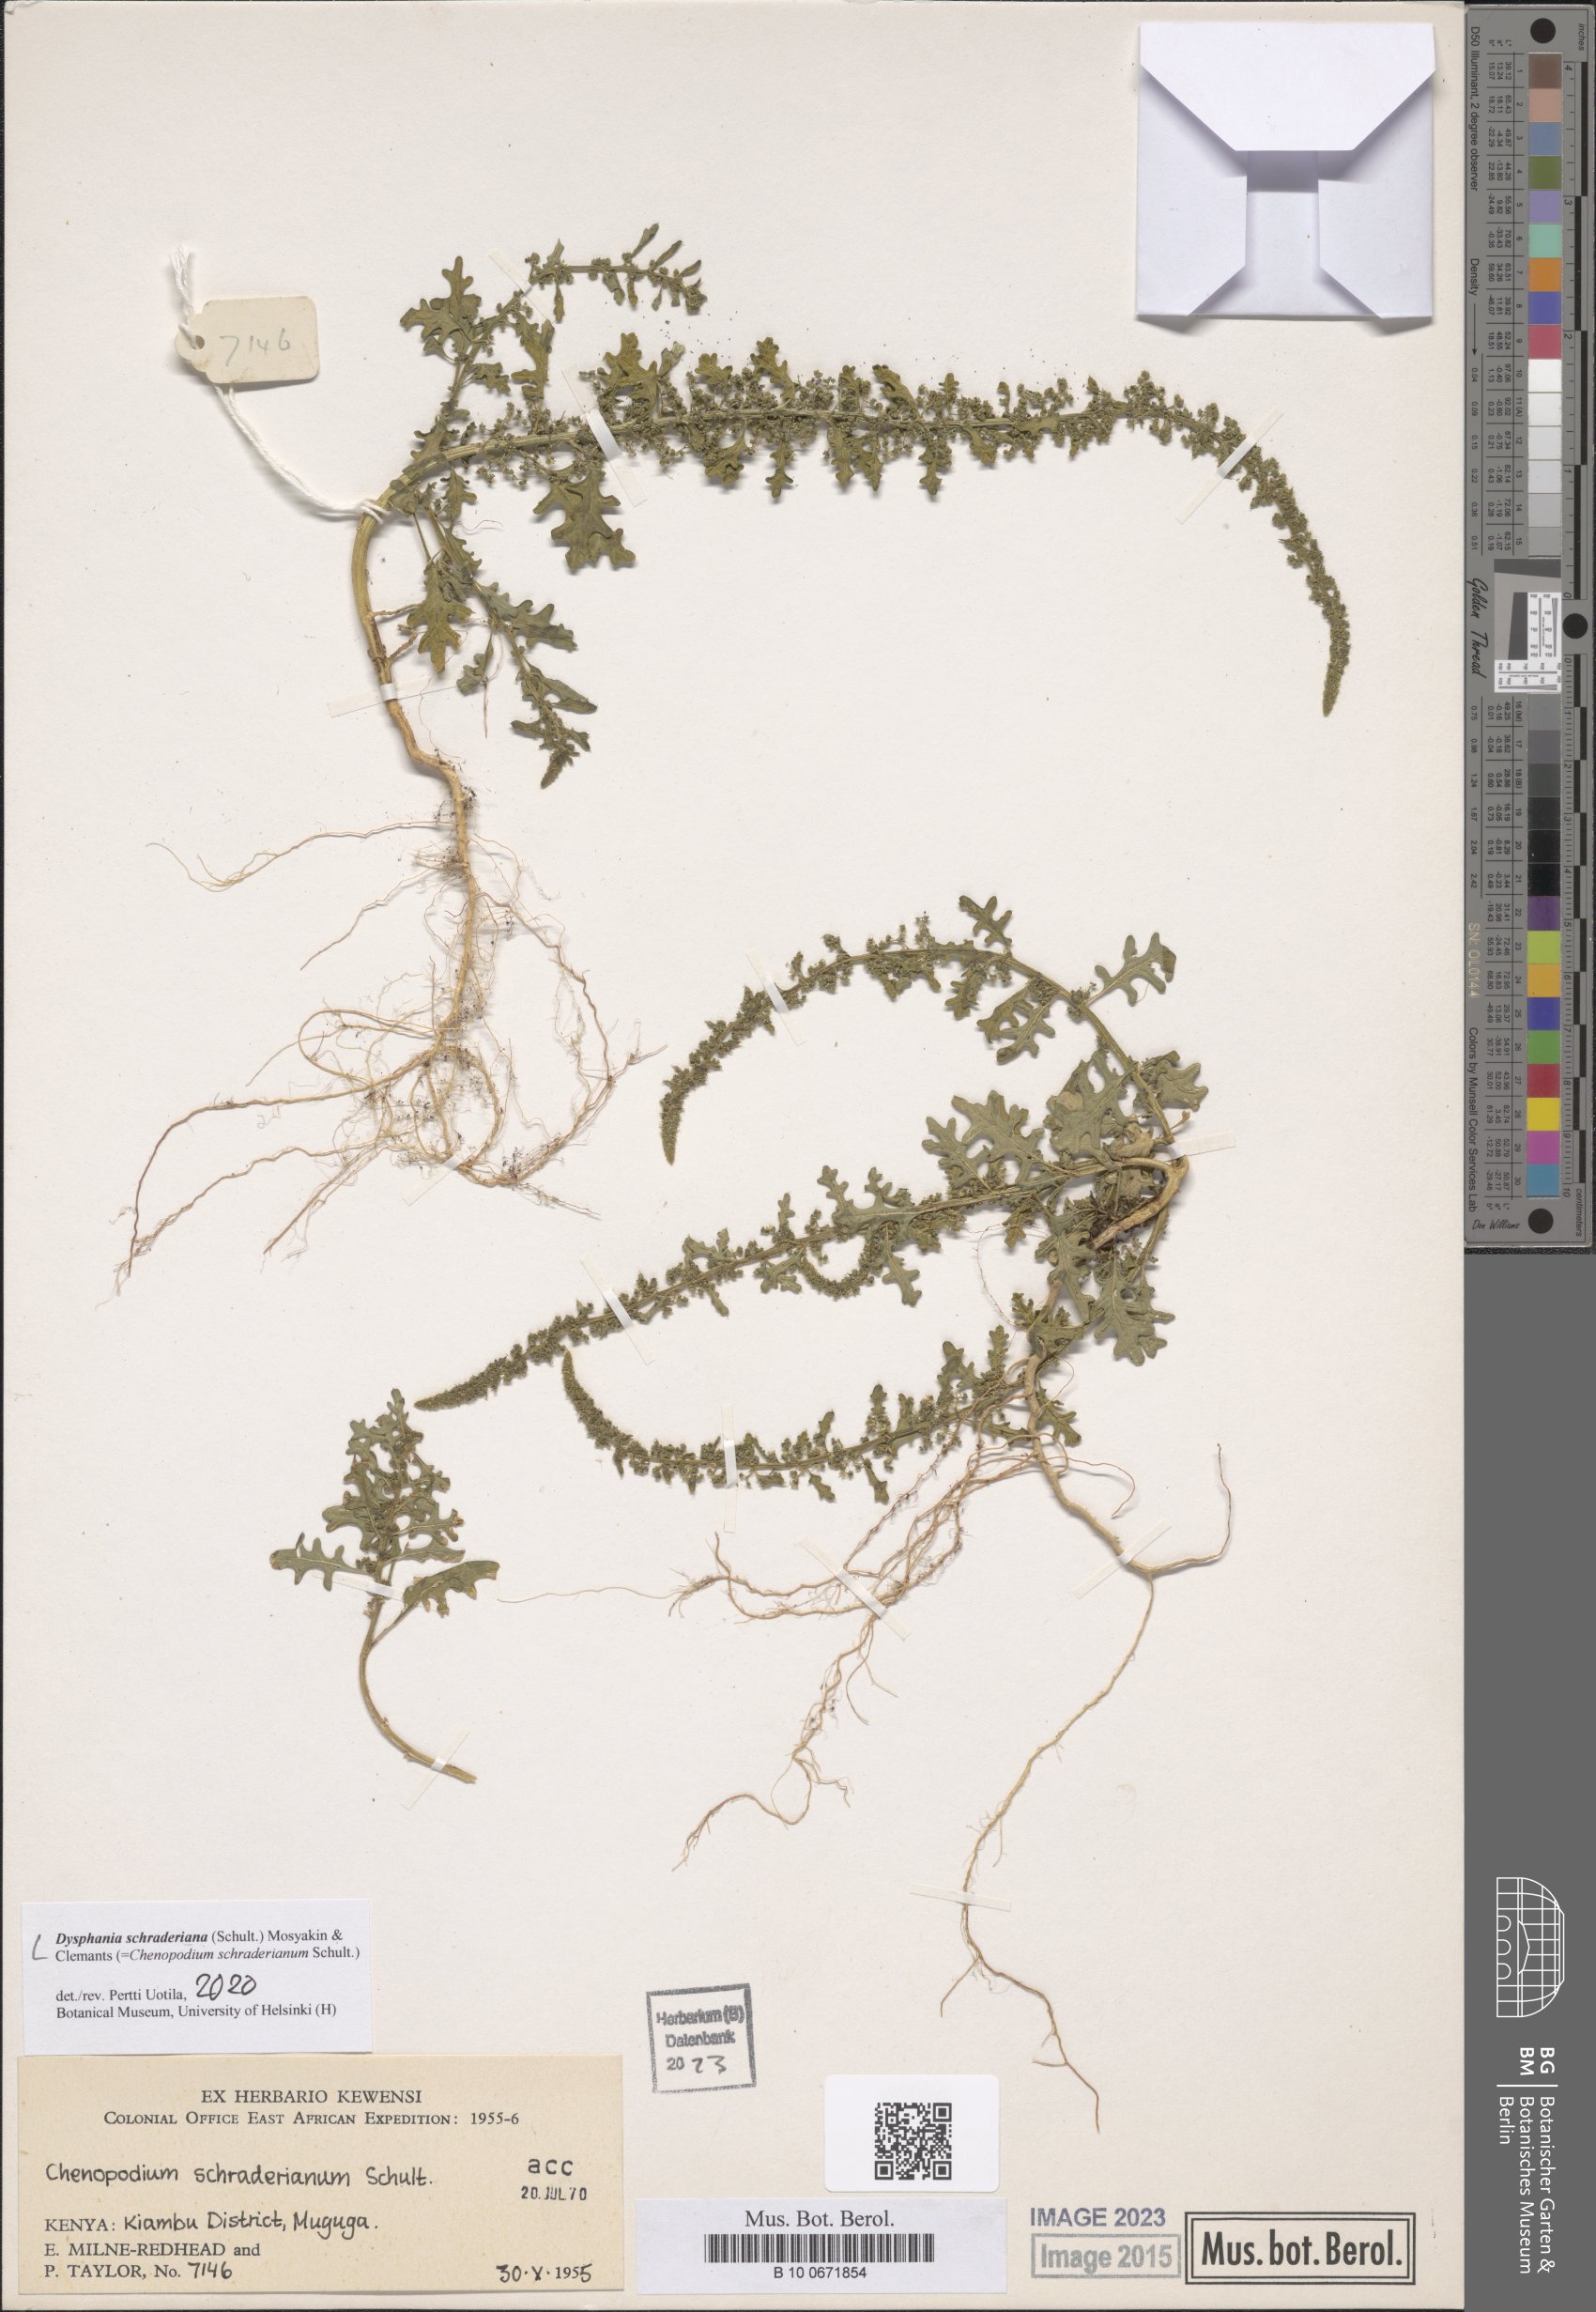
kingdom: Plantae
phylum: Tracheophyta
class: Magnoliopsida
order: Caryophyllales
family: Amaranthaceae
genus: Dysphania
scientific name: Dysphania schraderiana
